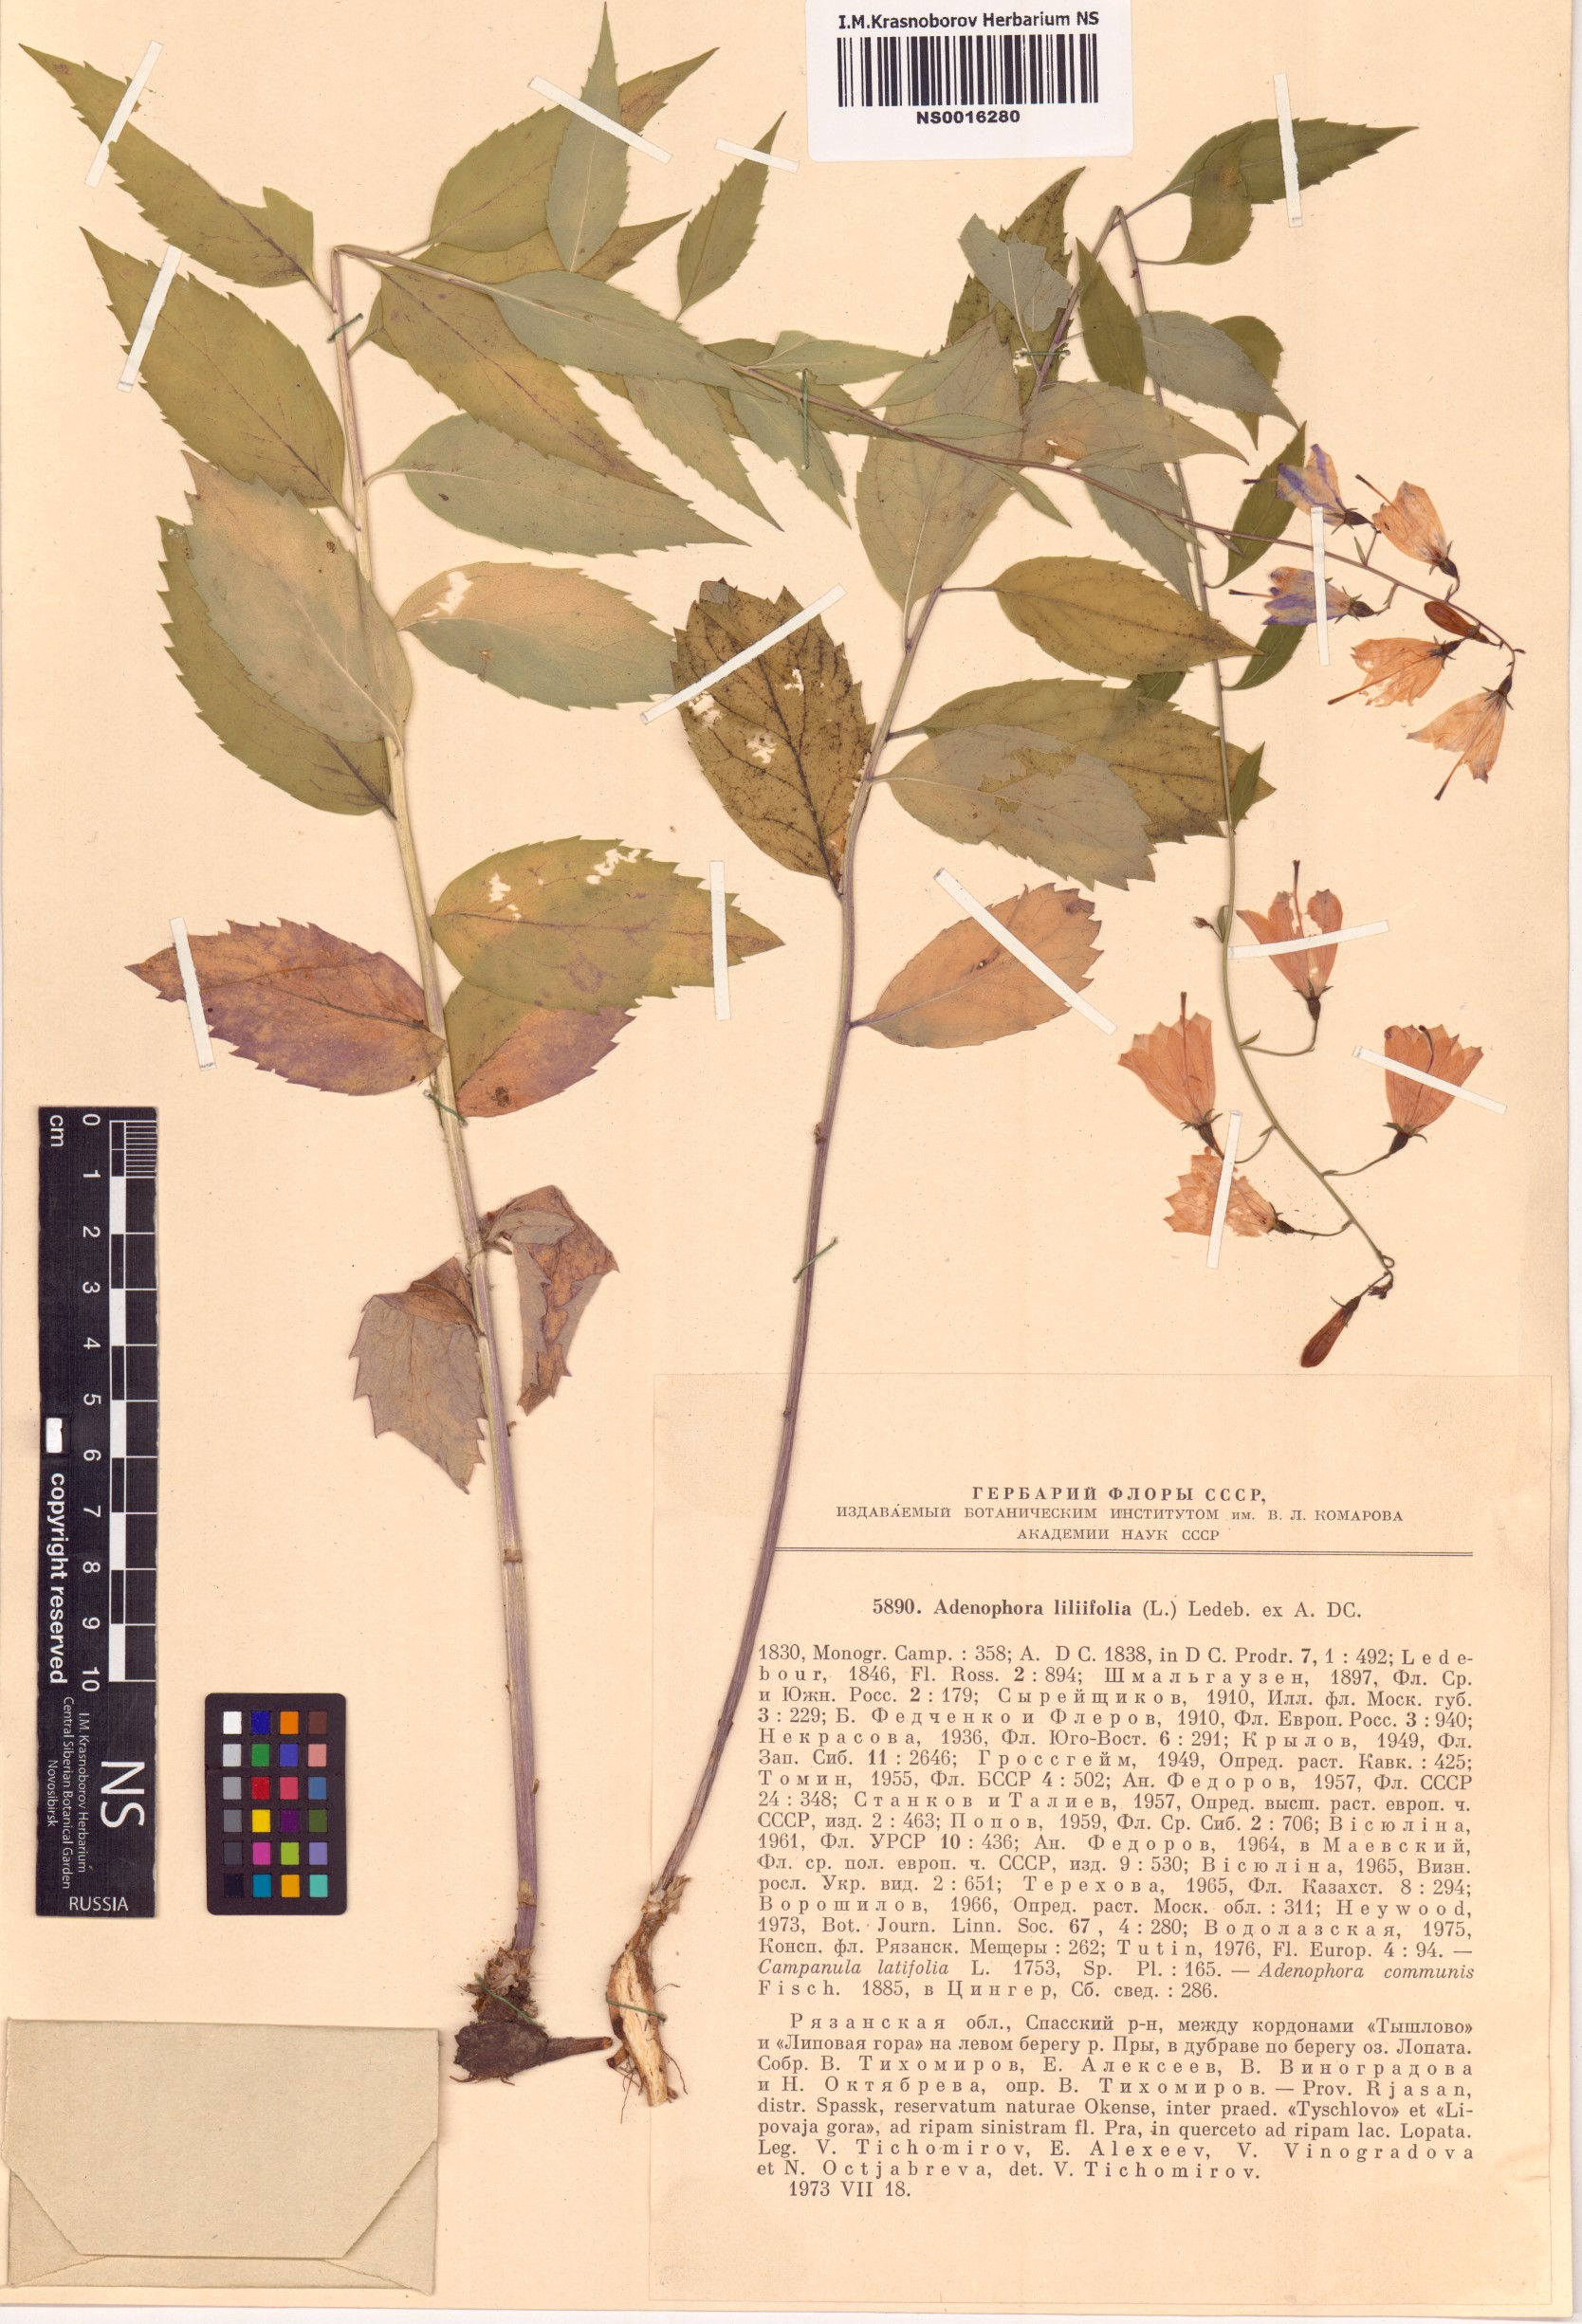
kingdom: Plantae
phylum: Tracheophyta
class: Magnoliopsida
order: Asterales
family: Campanulaceae
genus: Adenophora
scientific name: Adenophora liliifolia
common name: Lilyleaf ladybells
